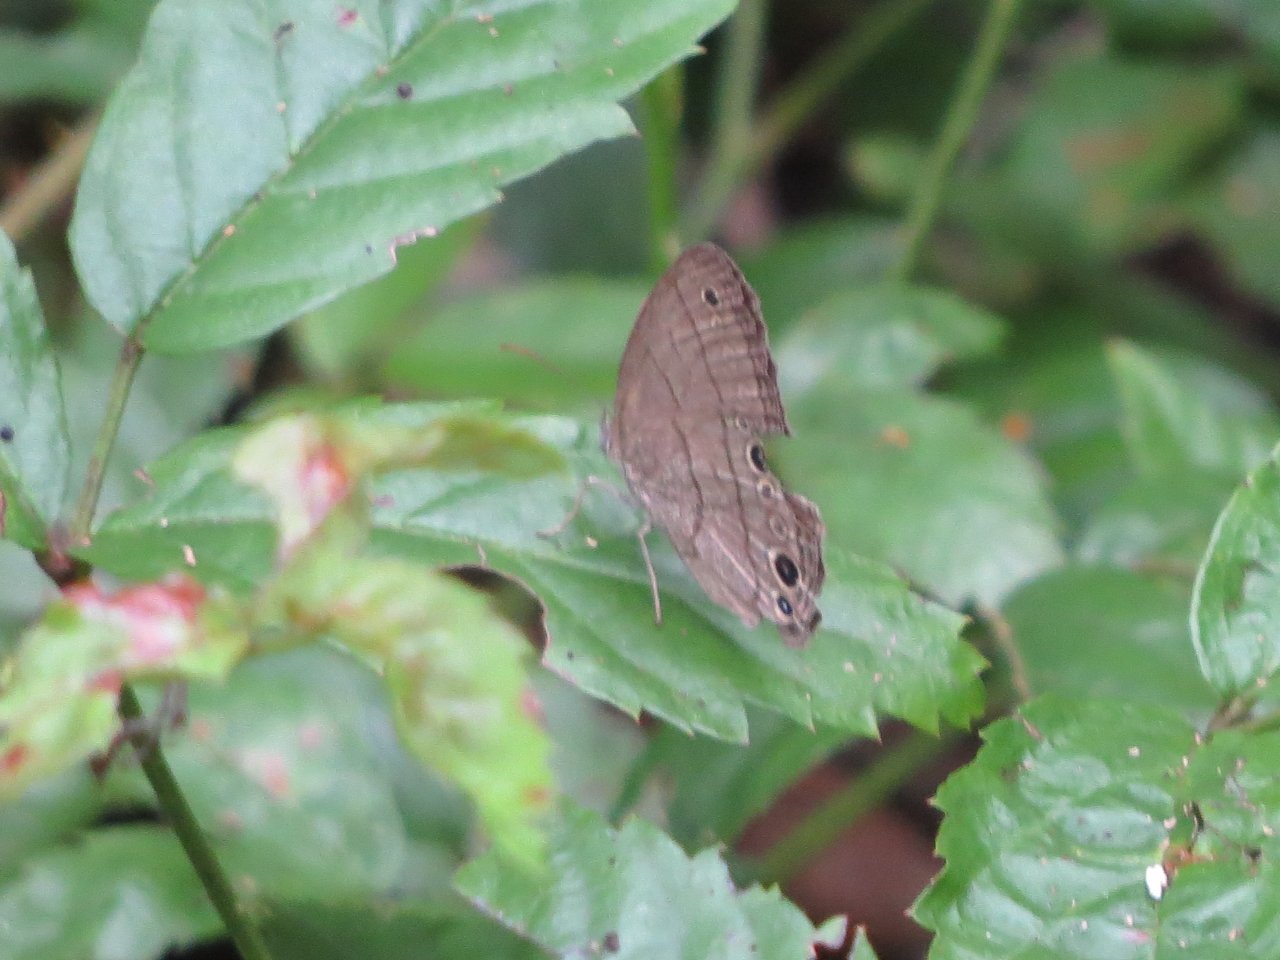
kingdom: Animalia
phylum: Arthropoda
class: Insecta
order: Lepidoptera
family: Nymphalidae
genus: Hermeuptychia
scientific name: Hermeuptychia
